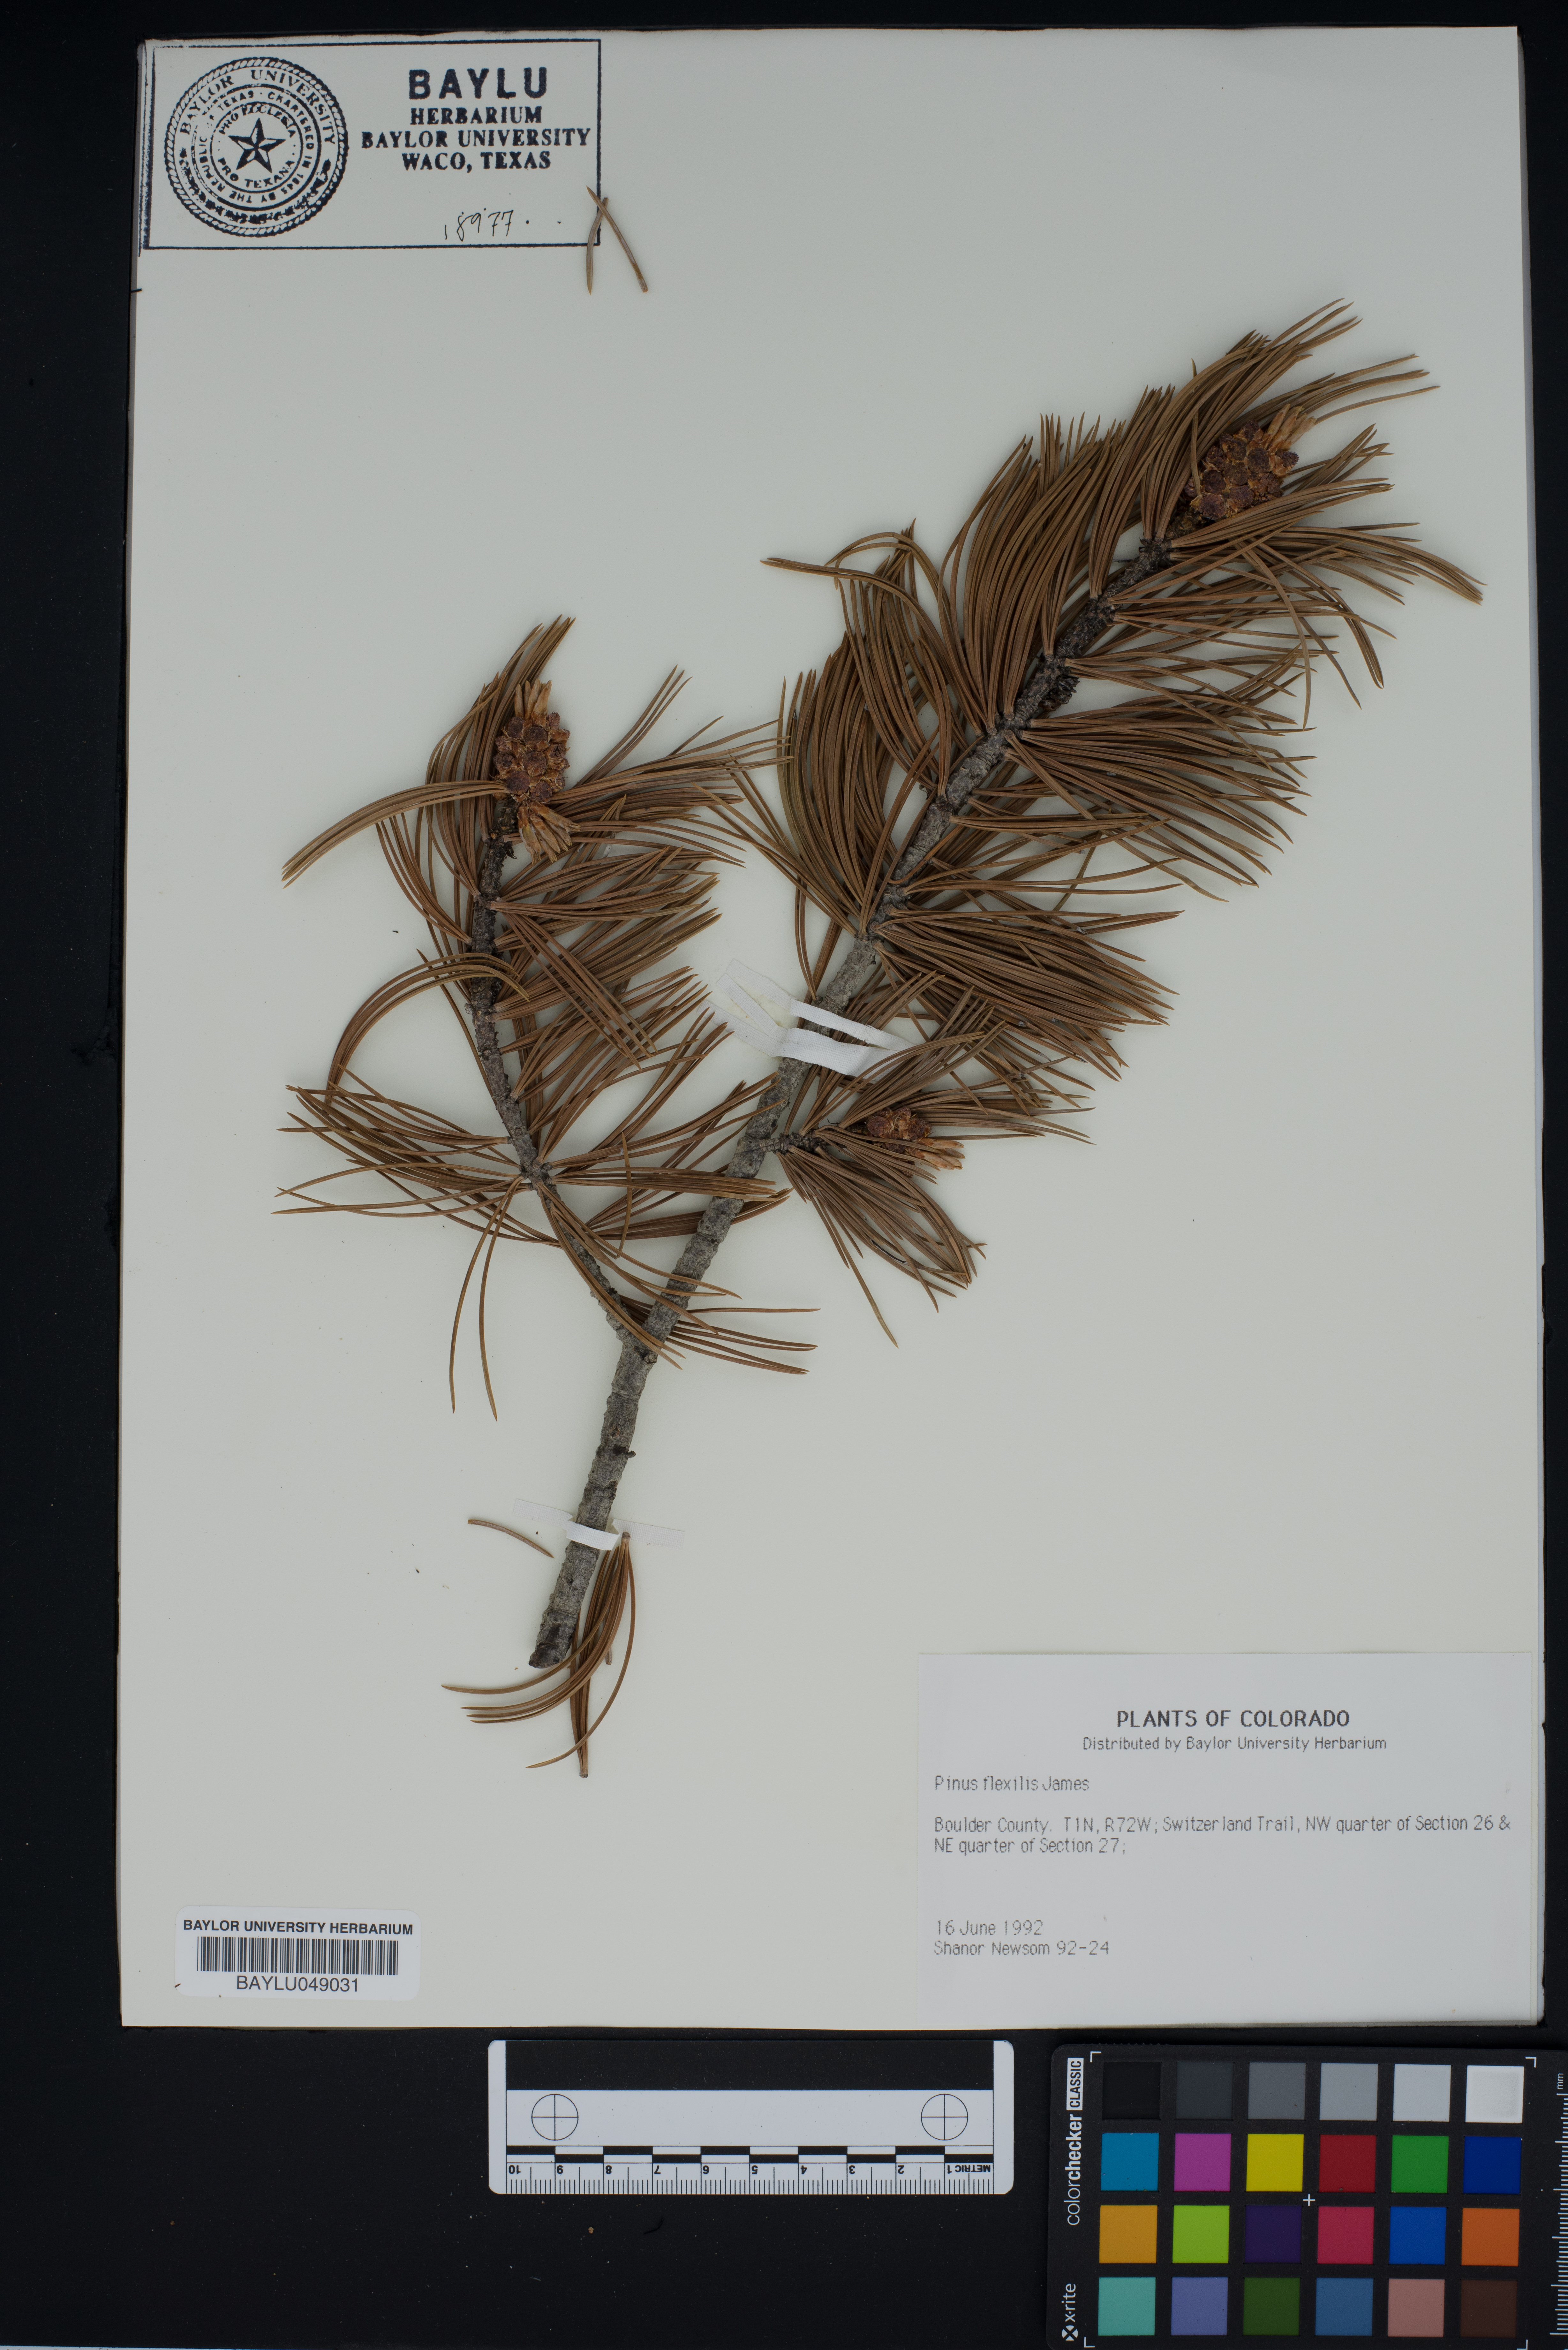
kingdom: Plantae
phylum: Tracheophyta
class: Pinopsida
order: Pinales
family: Pinaceae
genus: Pinus
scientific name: Pinus flexilis
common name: Limber pine
